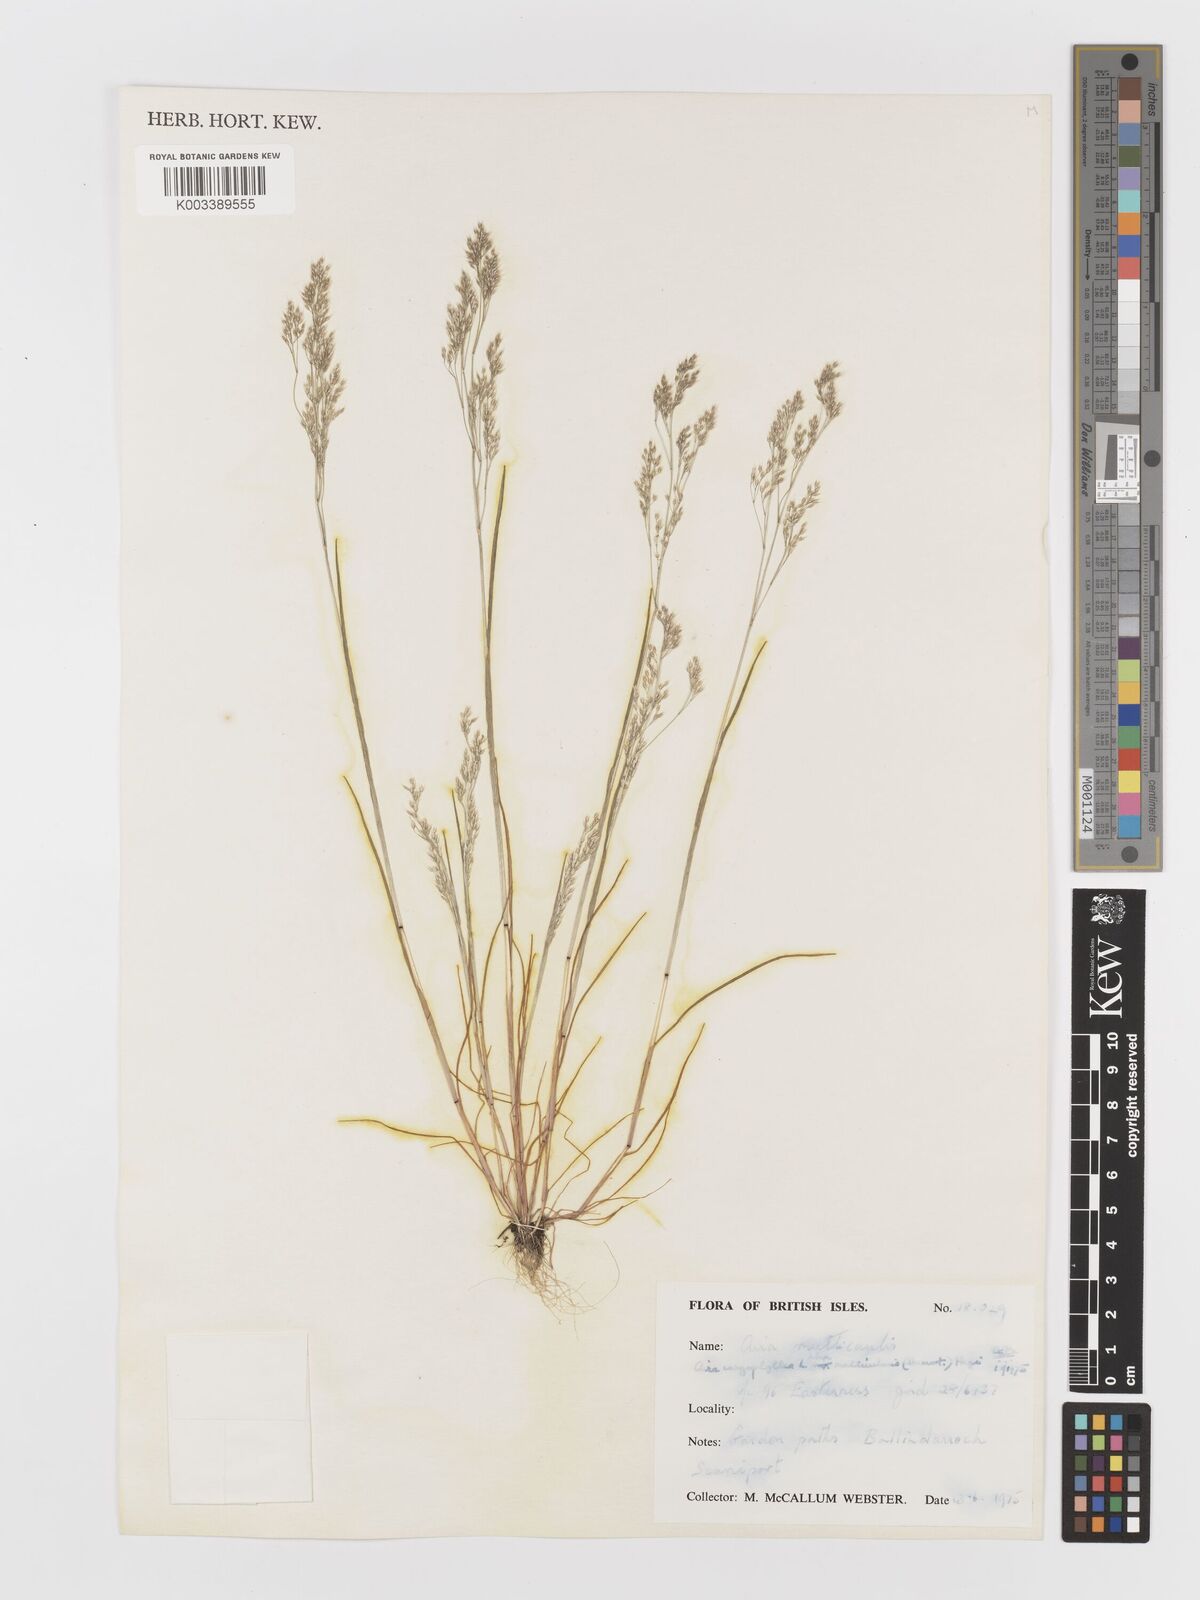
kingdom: Plantae
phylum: Tracheophyta
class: Liliopsida
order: Poales
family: Poaceae
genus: Aira
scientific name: Aira caryophyllea
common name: Silver hairgrass
